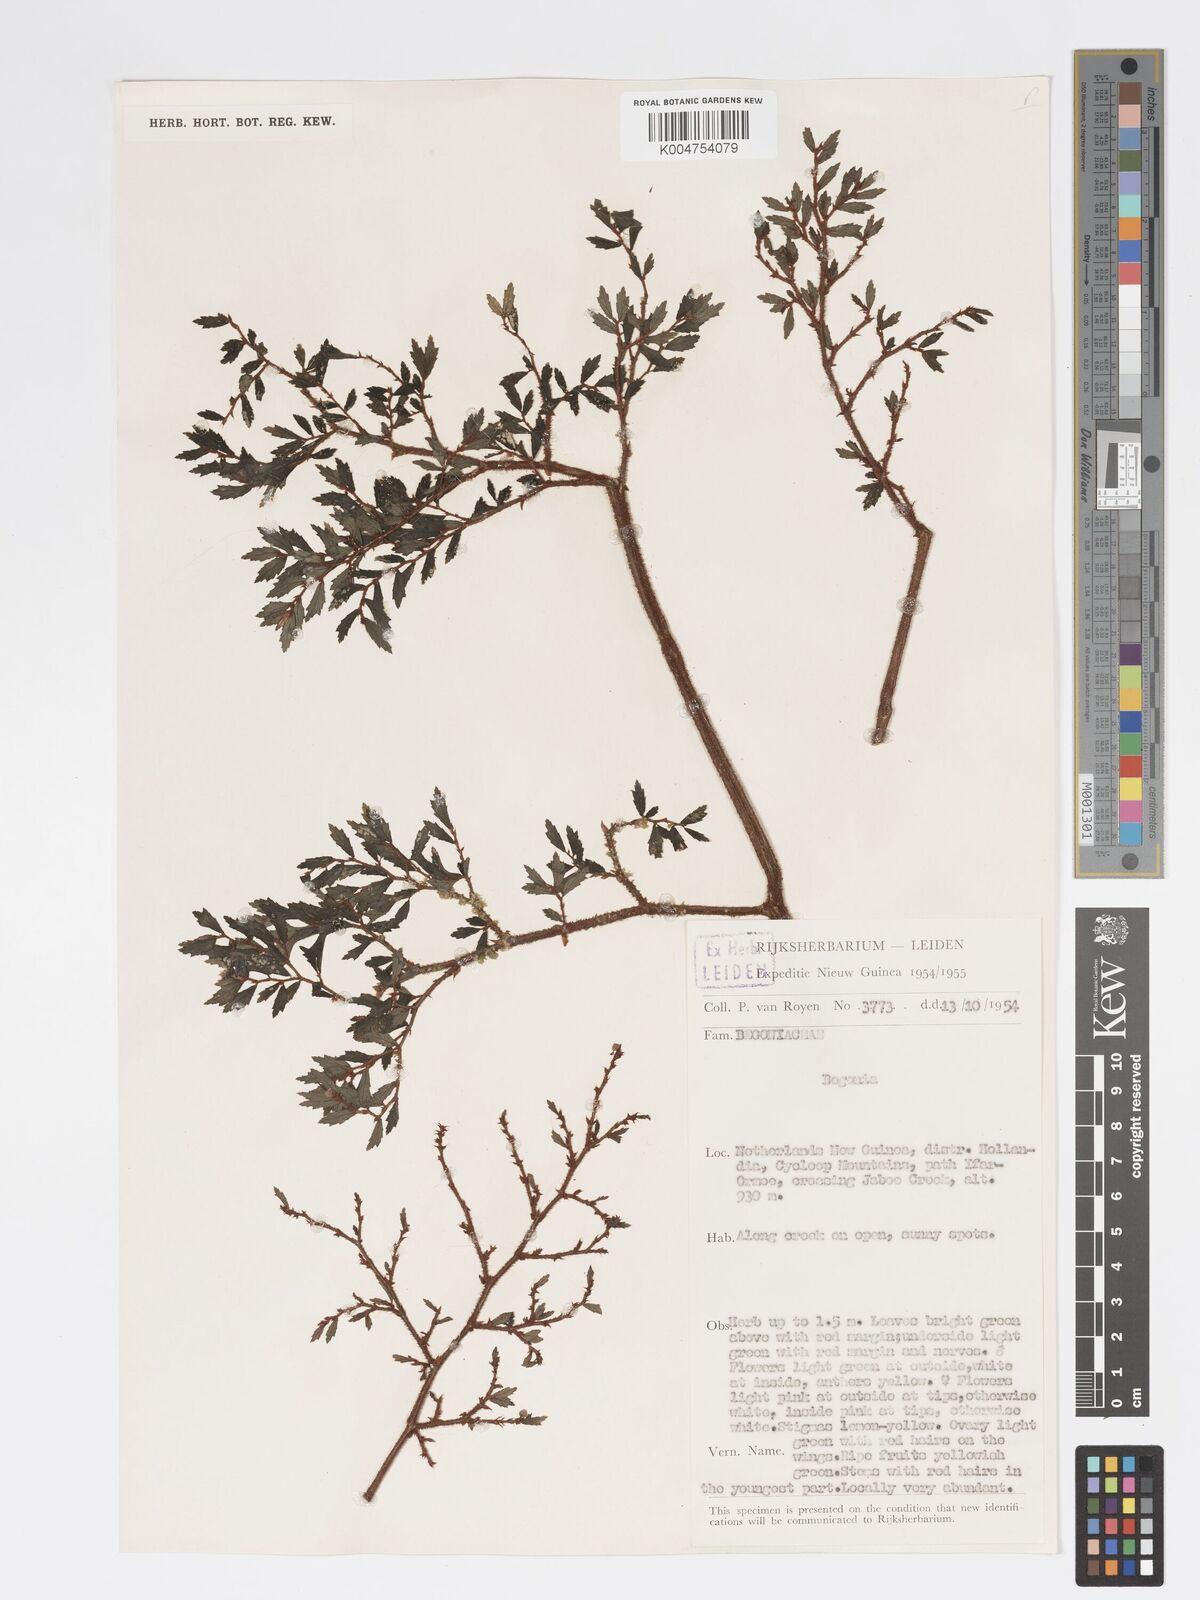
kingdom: Plantae
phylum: Tracheophyta
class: Magnoliopsida
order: Cucurbitales
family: Begoniaceae
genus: Begonia
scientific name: Begonia
